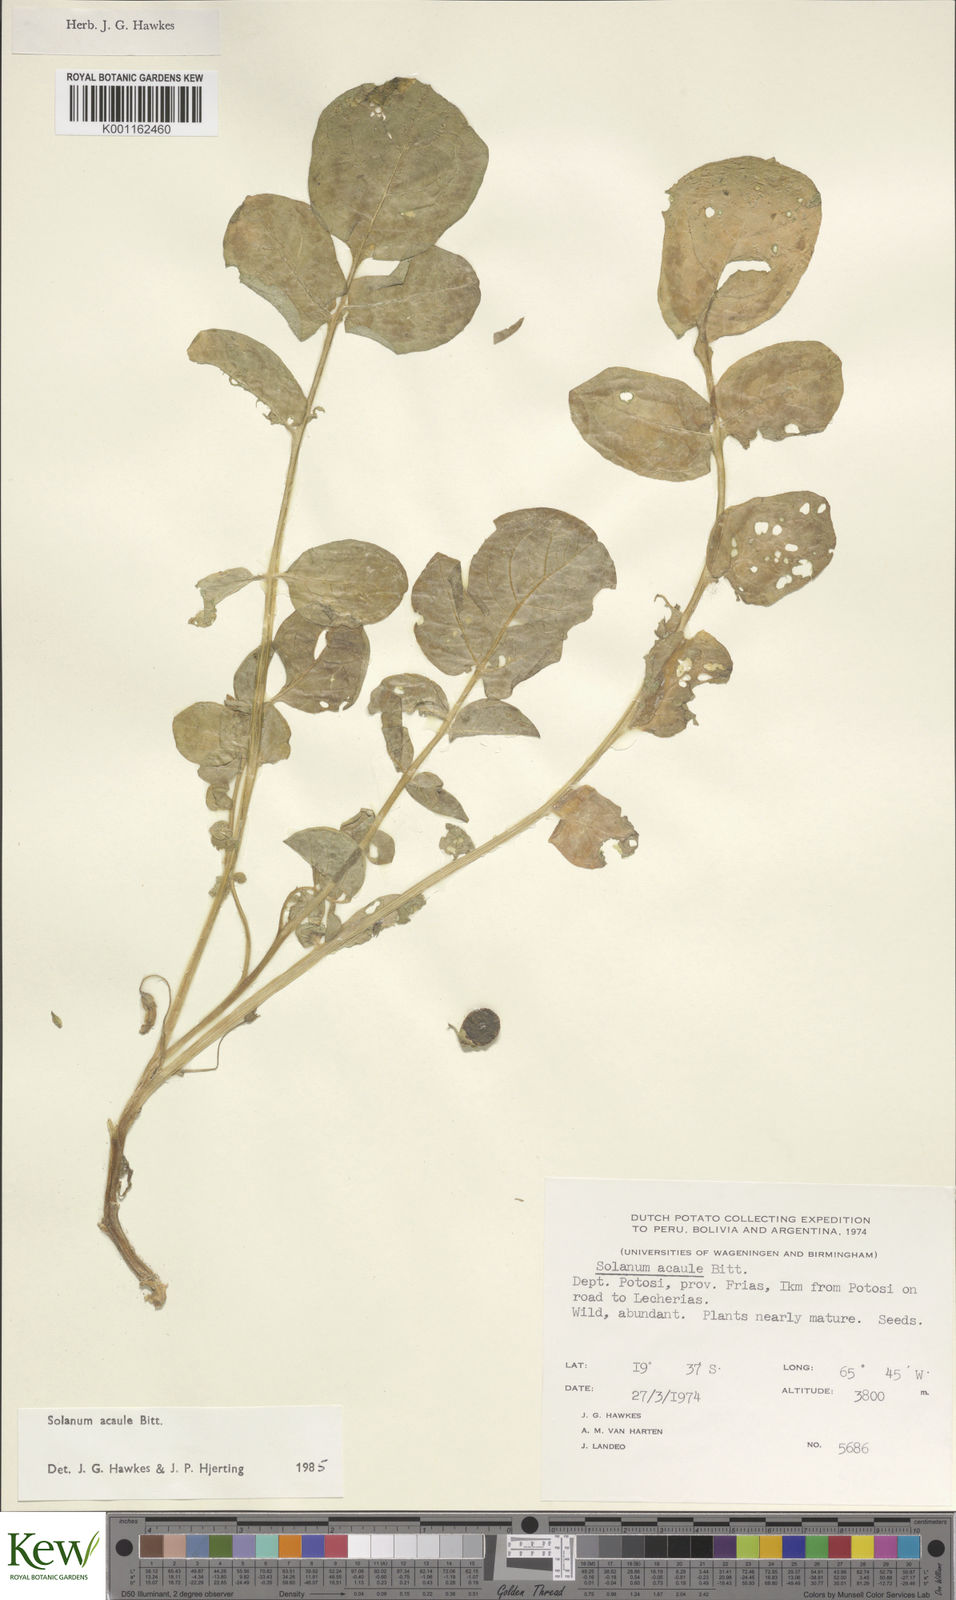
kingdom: Plantae
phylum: Tracheophyta
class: Magnoliopsida
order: Solanales
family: Solanaceae
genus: Solanum
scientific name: Solanum acaule
